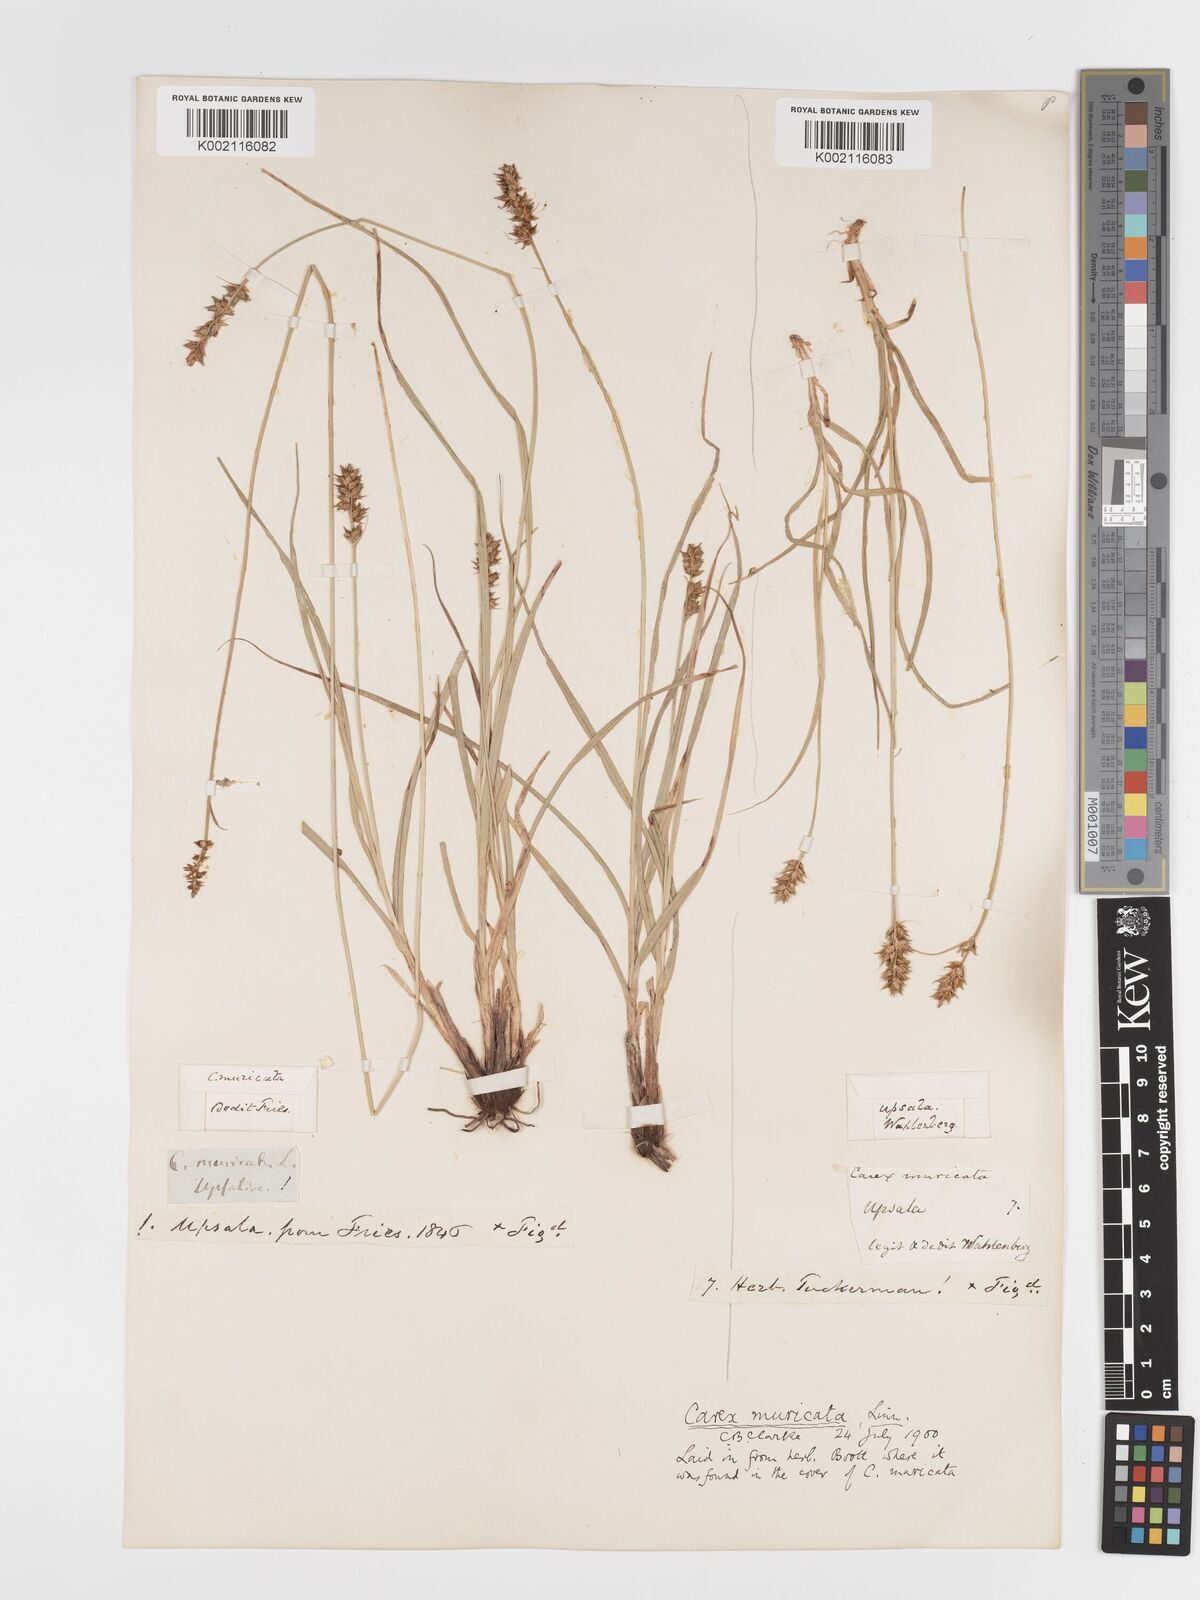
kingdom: Plantae
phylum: Tracheophyta
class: Liliopsida
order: Poales
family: Cyperaceae
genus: Carex
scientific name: Carex spicata
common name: Spiked sedge
